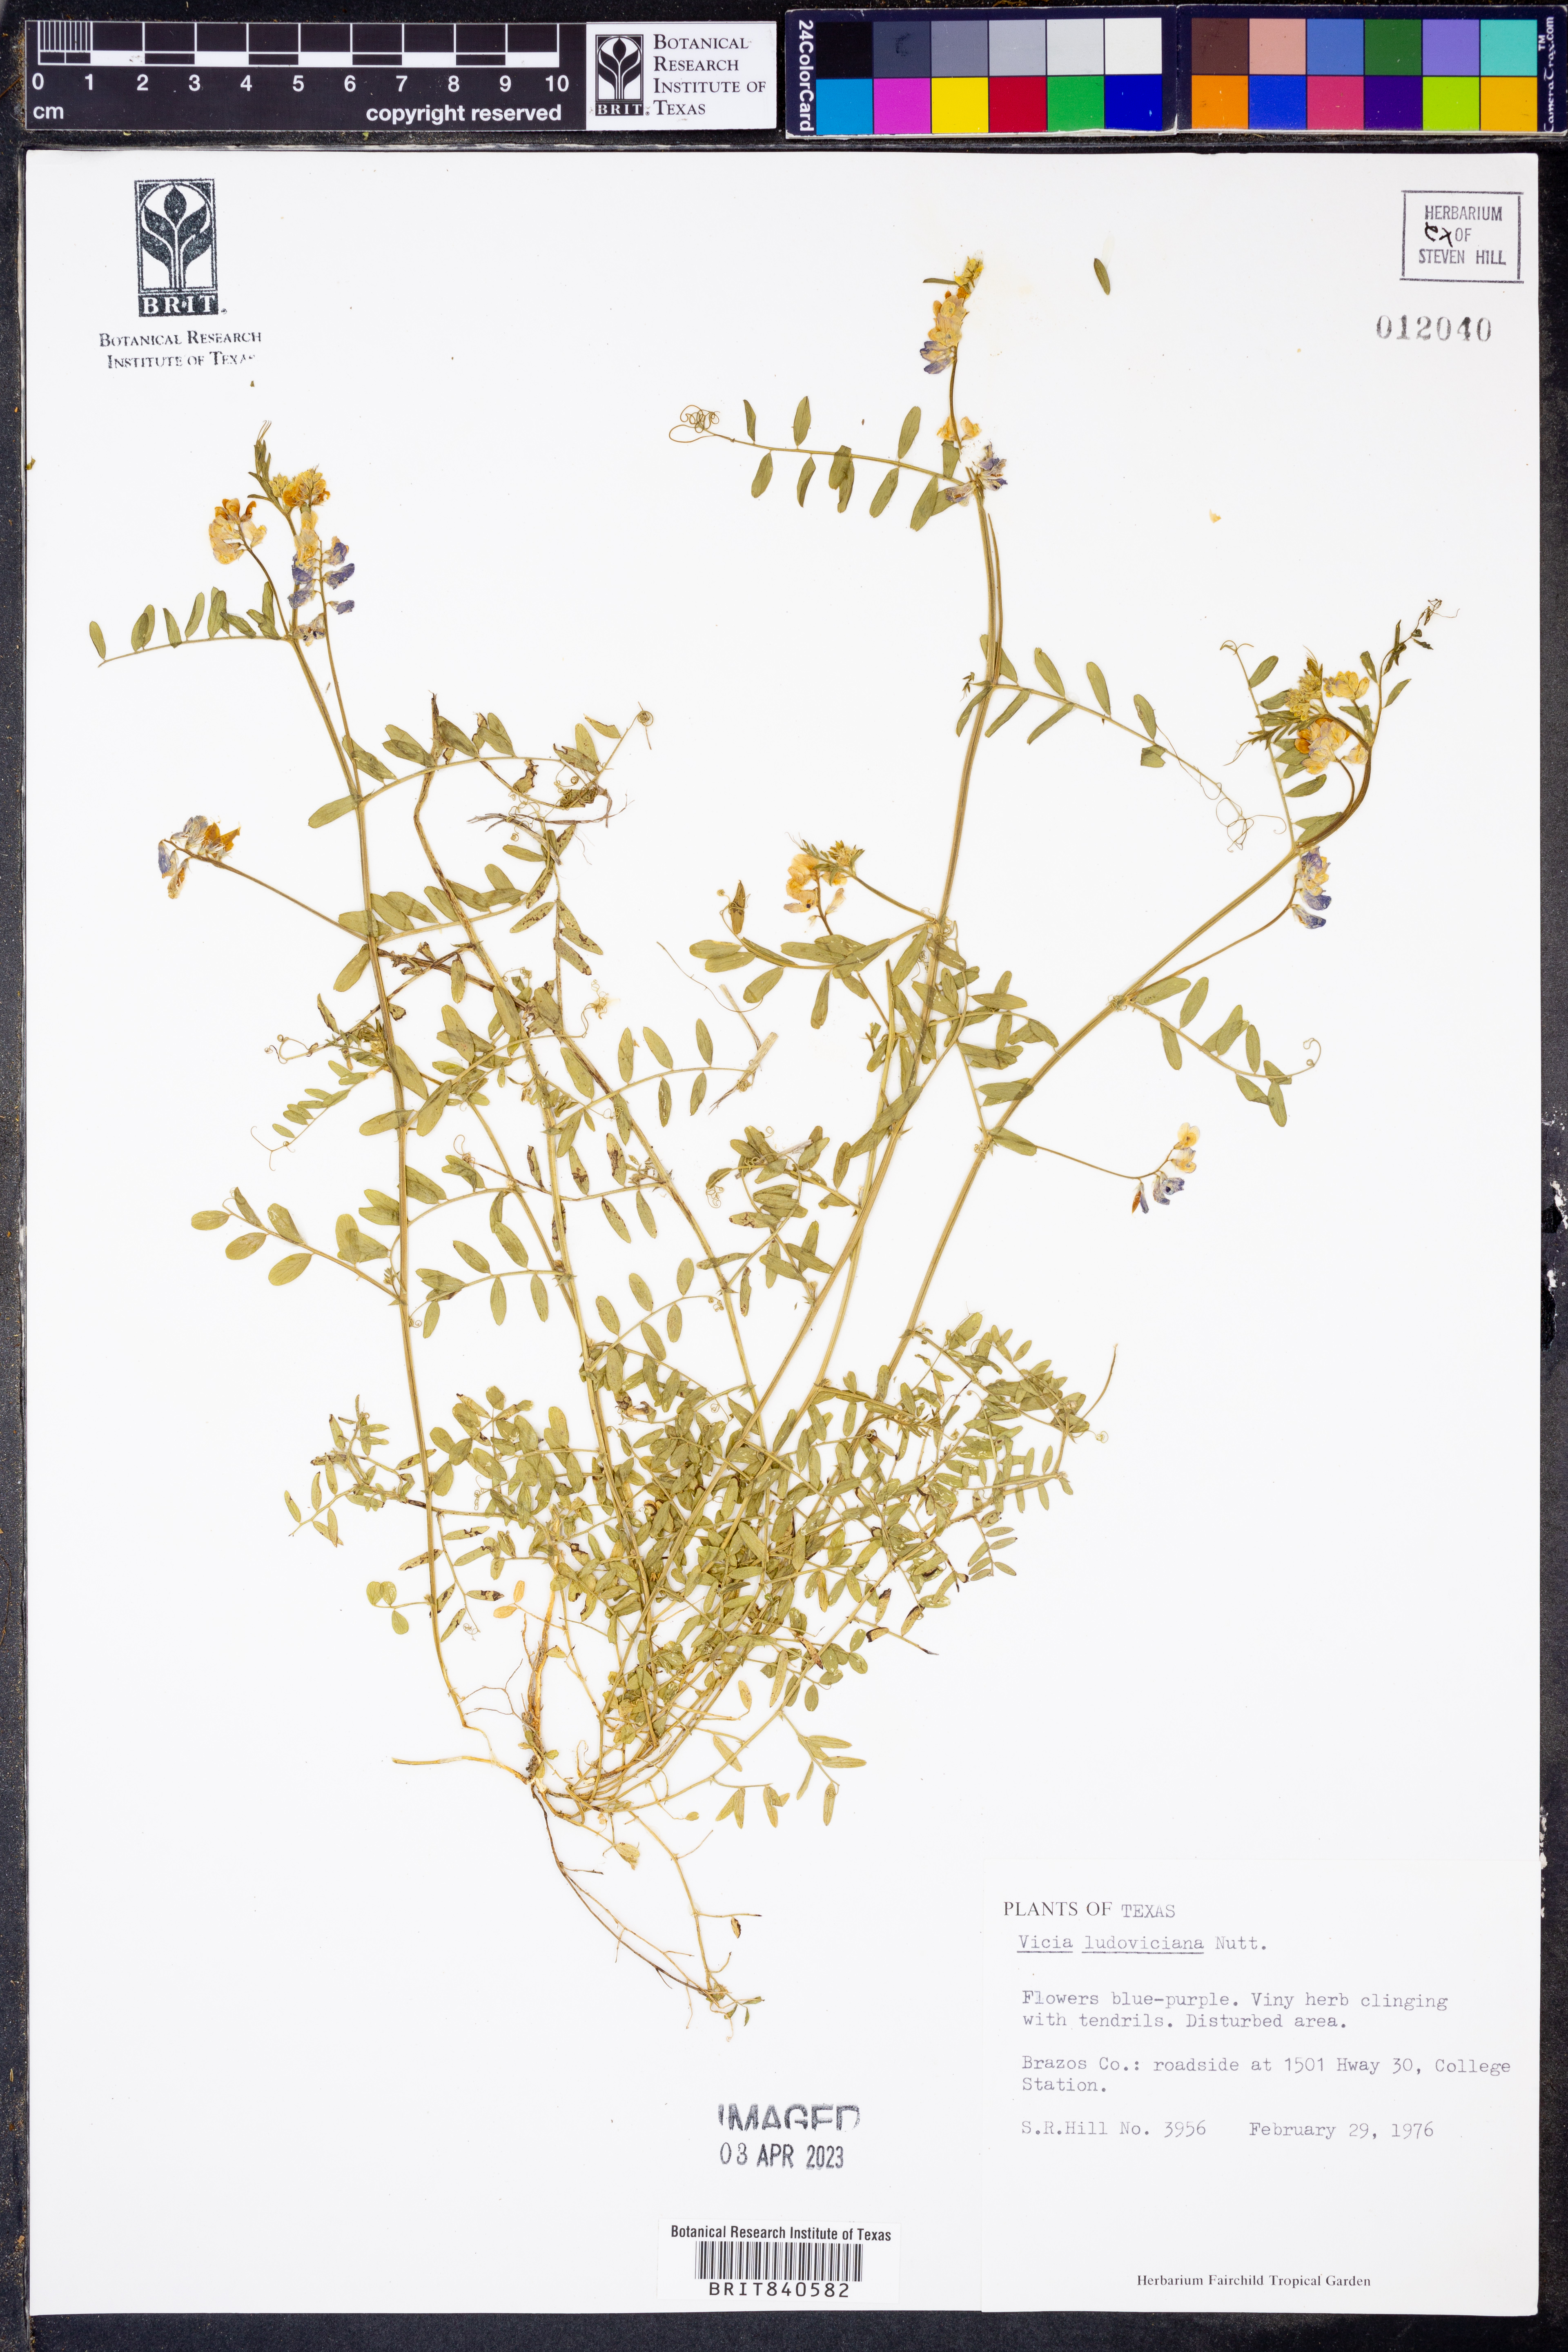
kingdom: Plantae
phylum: Tracheophyta
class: Magnoliopsida
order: Fabales
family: Fabaceae
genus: Vicia
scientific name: Vicia ludoviciana
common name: Louisiana vetch
